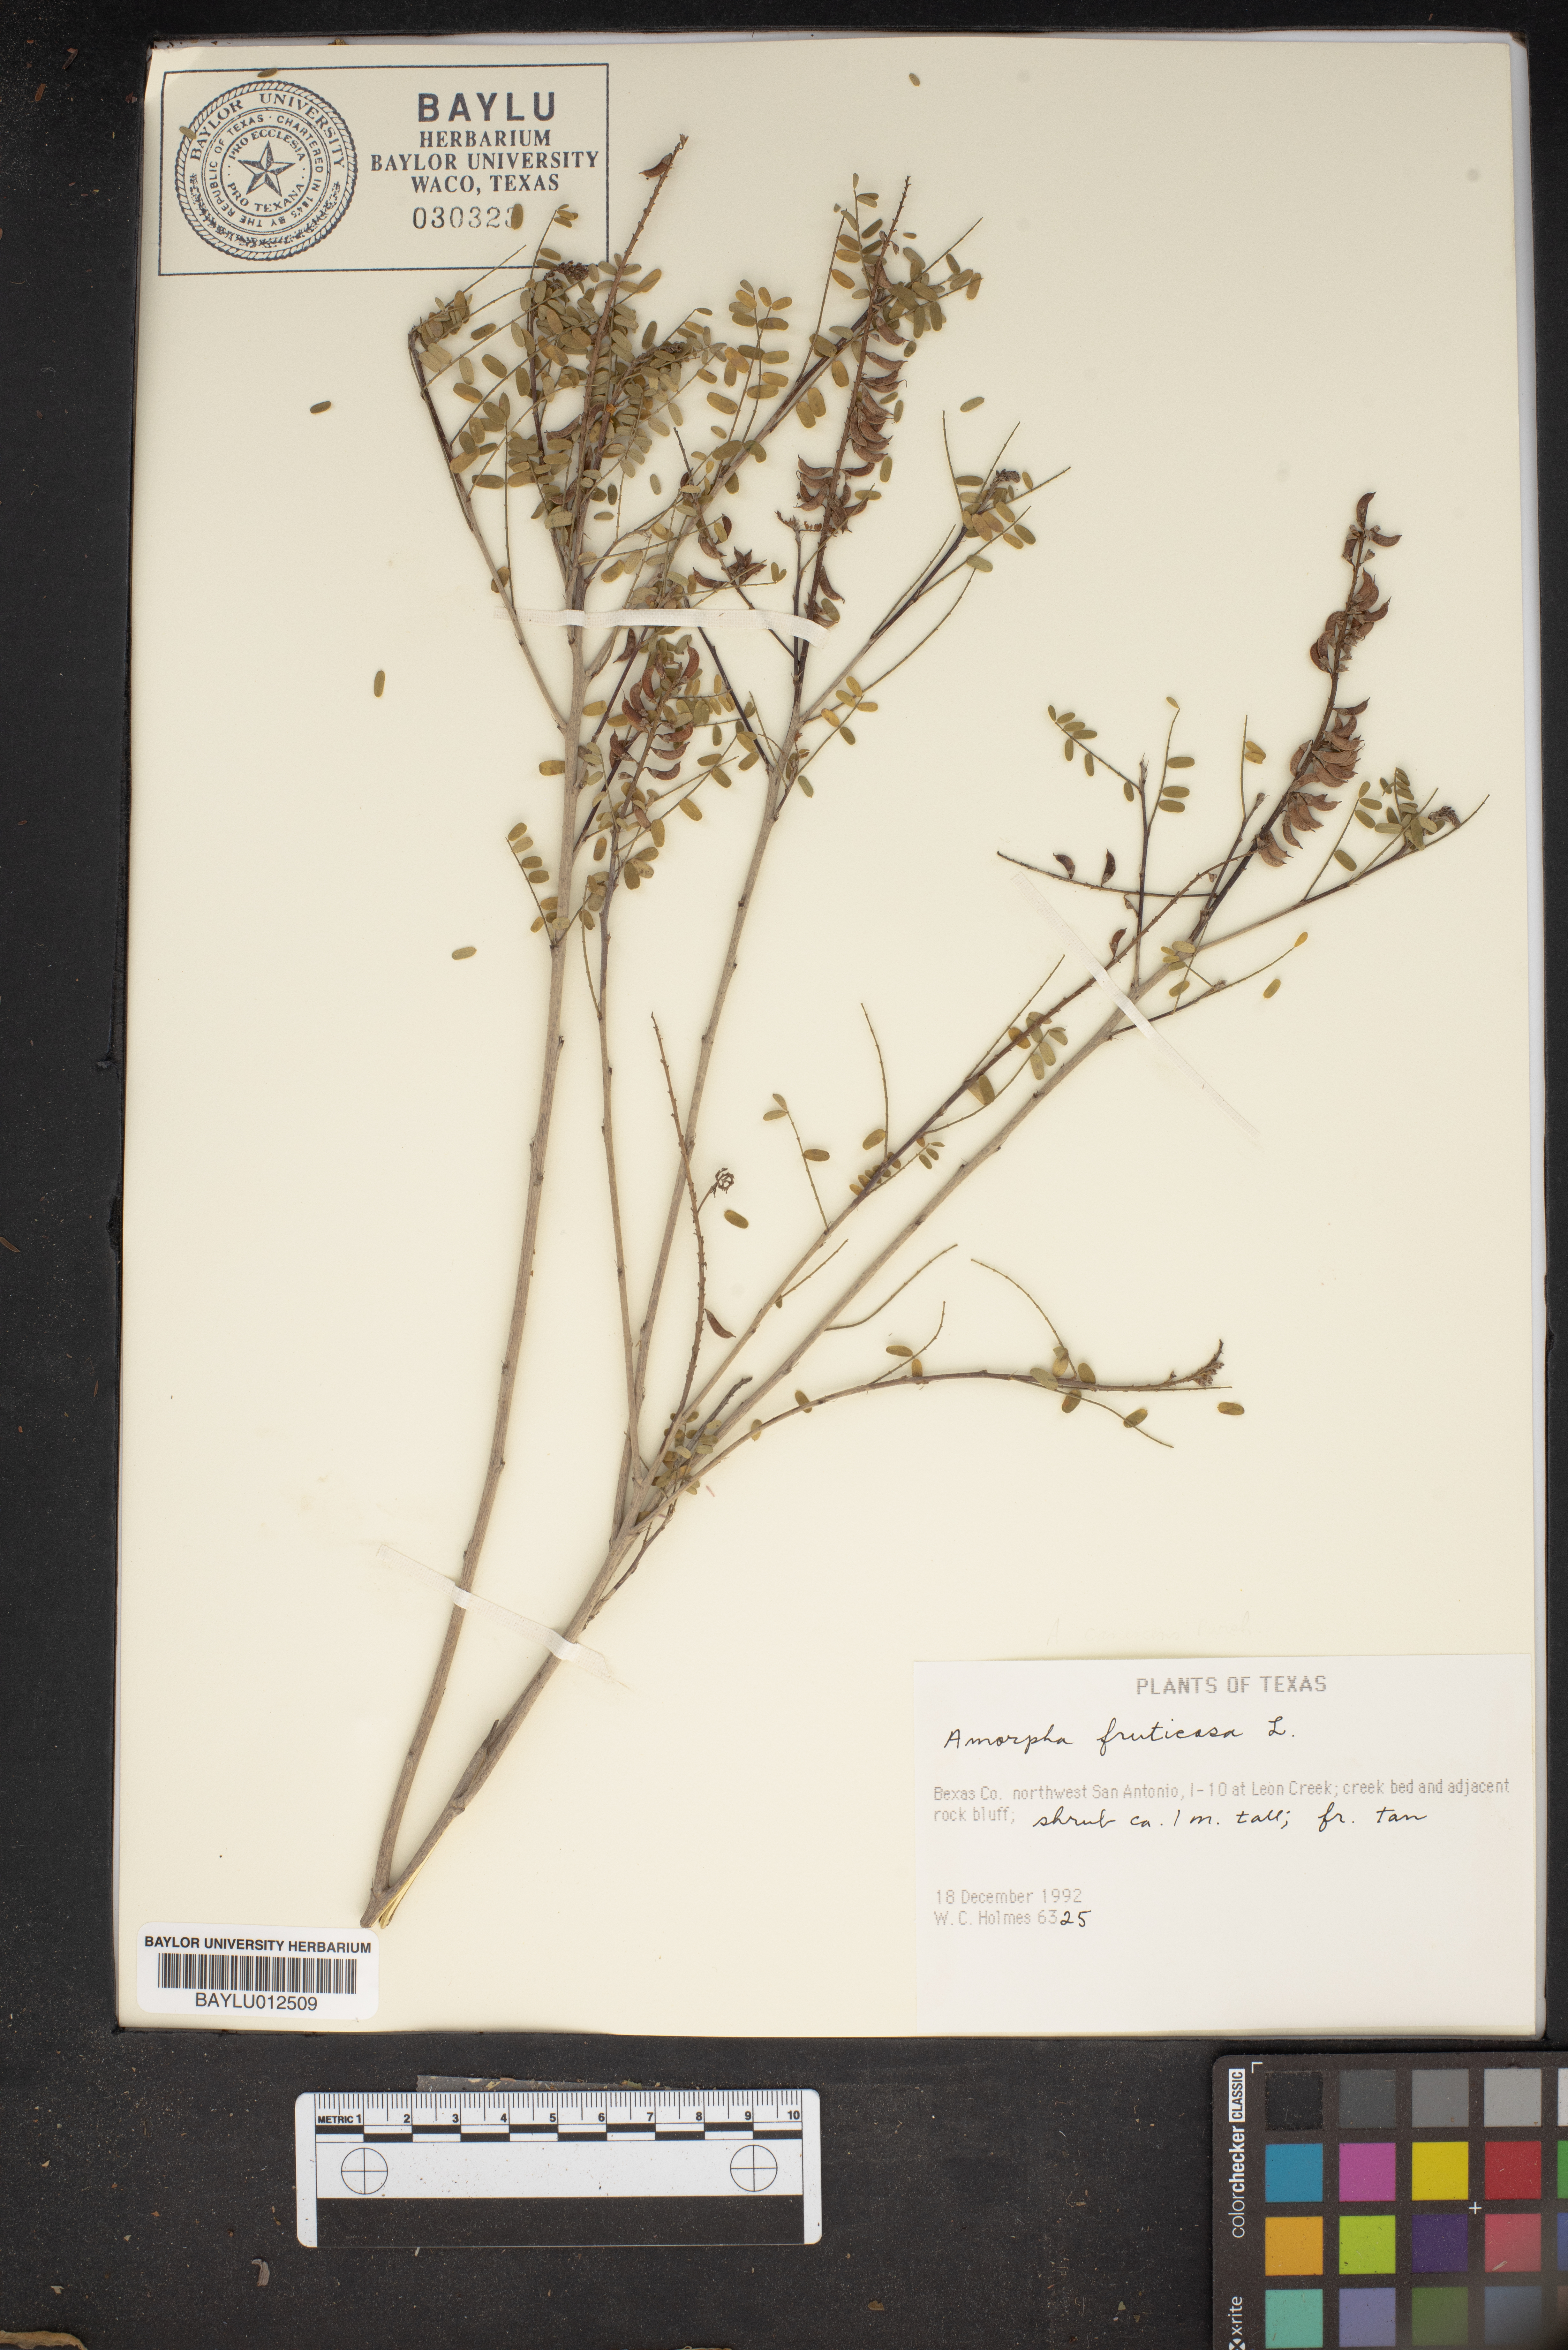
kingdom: Plantae
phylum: Tracheophyta
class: Magnoliopsida
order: Fabales
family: Fabaceae
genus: Amorpha
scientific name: Amorpha fruticosa
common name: False indigo
